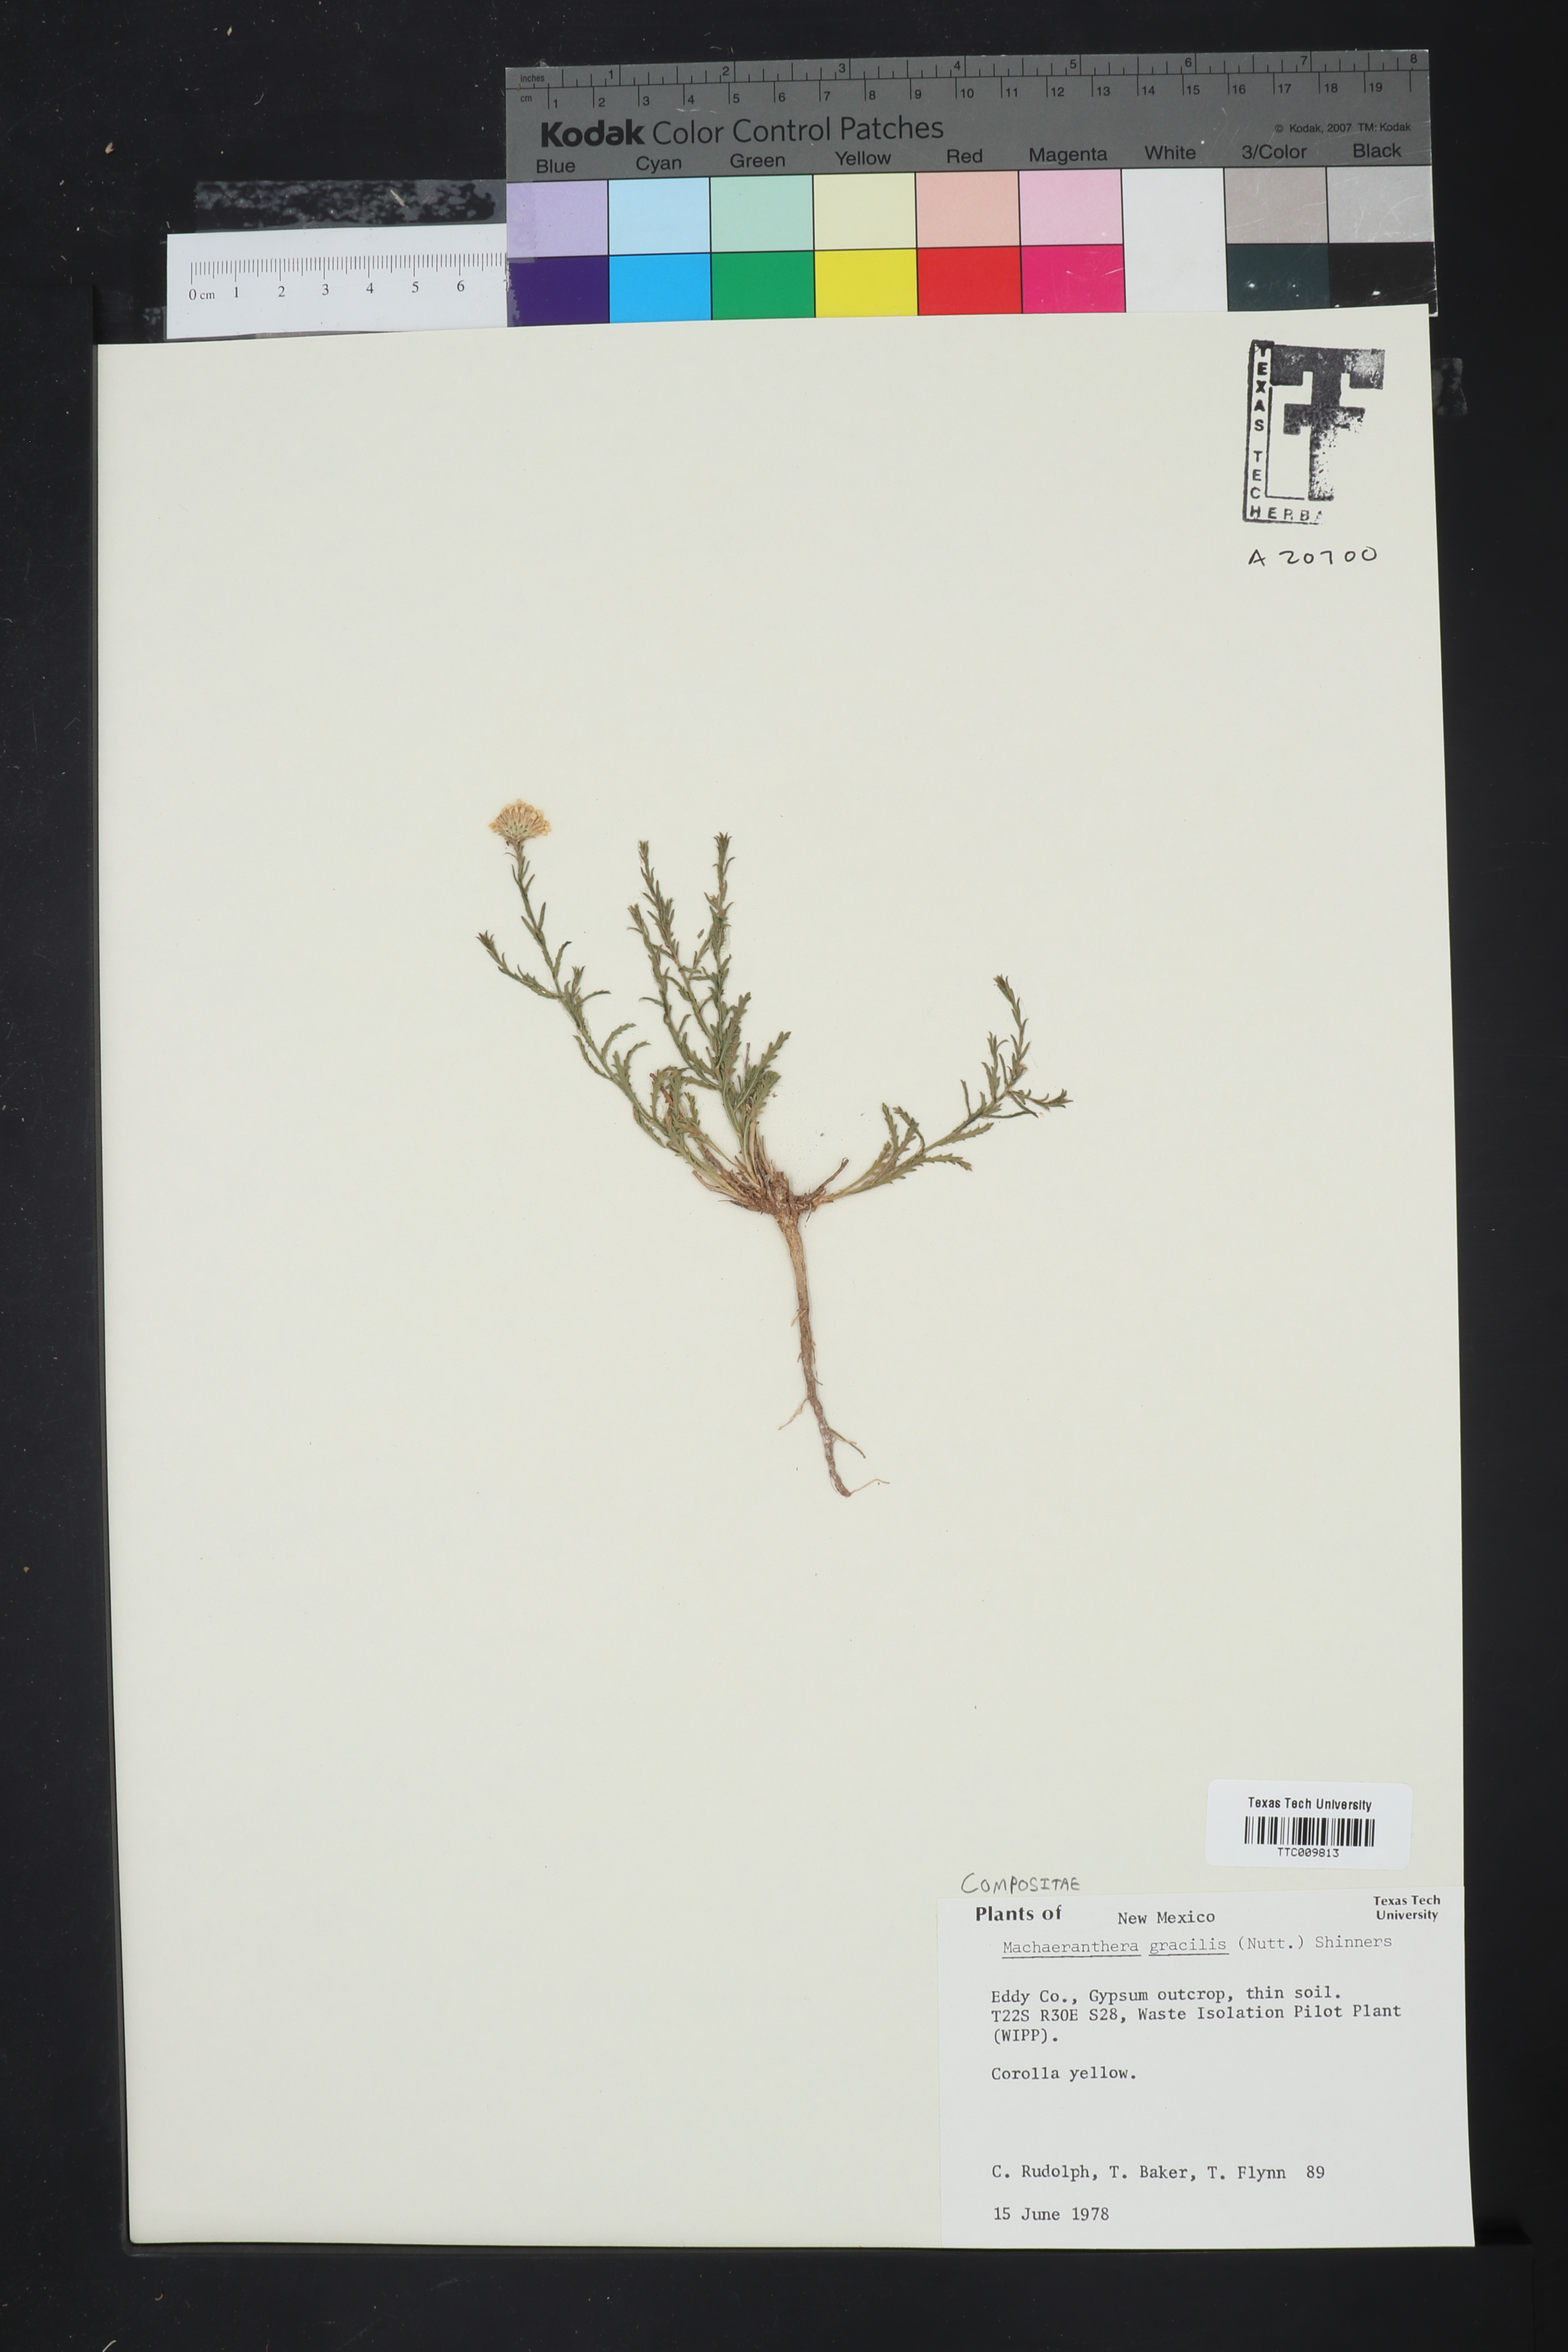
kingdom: Plantae
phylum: Tracheophyta
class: Magnoliopsida
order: Asterales
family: Asteraceae
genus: Xanthisma
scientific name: Xanthisma gracile
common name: Slender goldenweed
